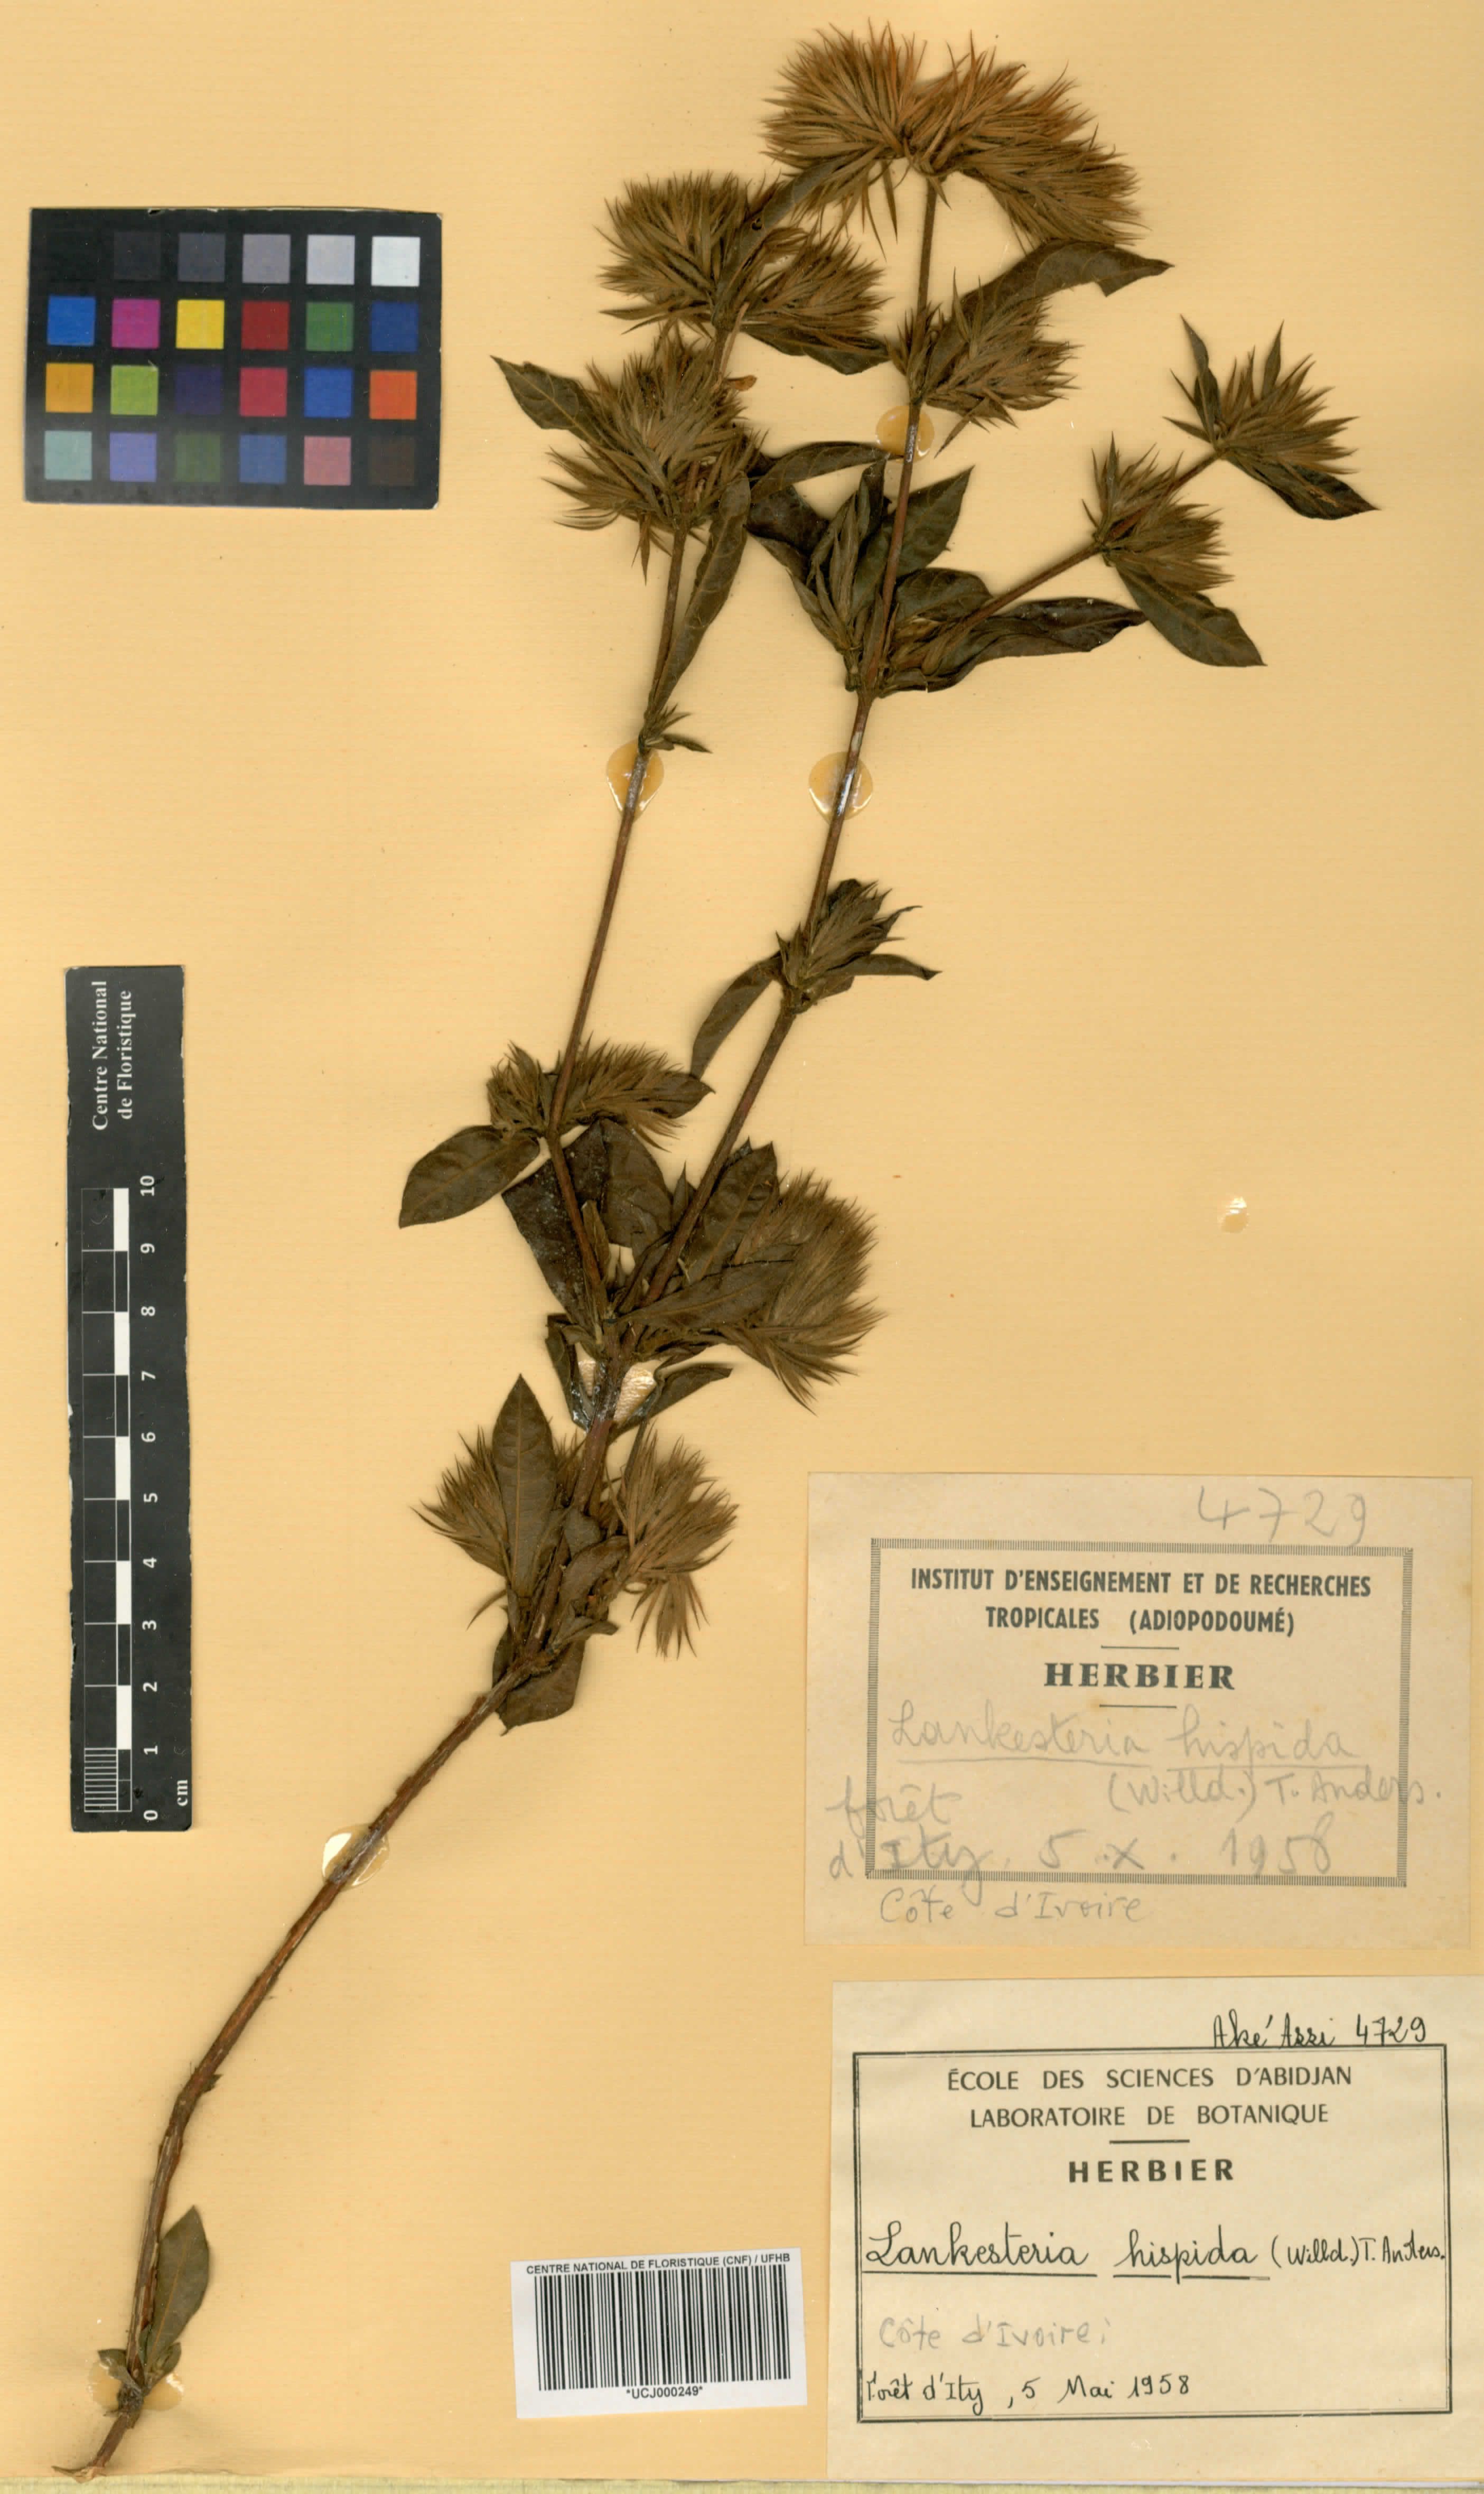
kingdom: Plantae
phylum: Tracheophyta
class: Magnoliopsida
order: Lamiales
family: Acanthaceae
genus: Lankesteria
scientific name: Lankesteria hispida
